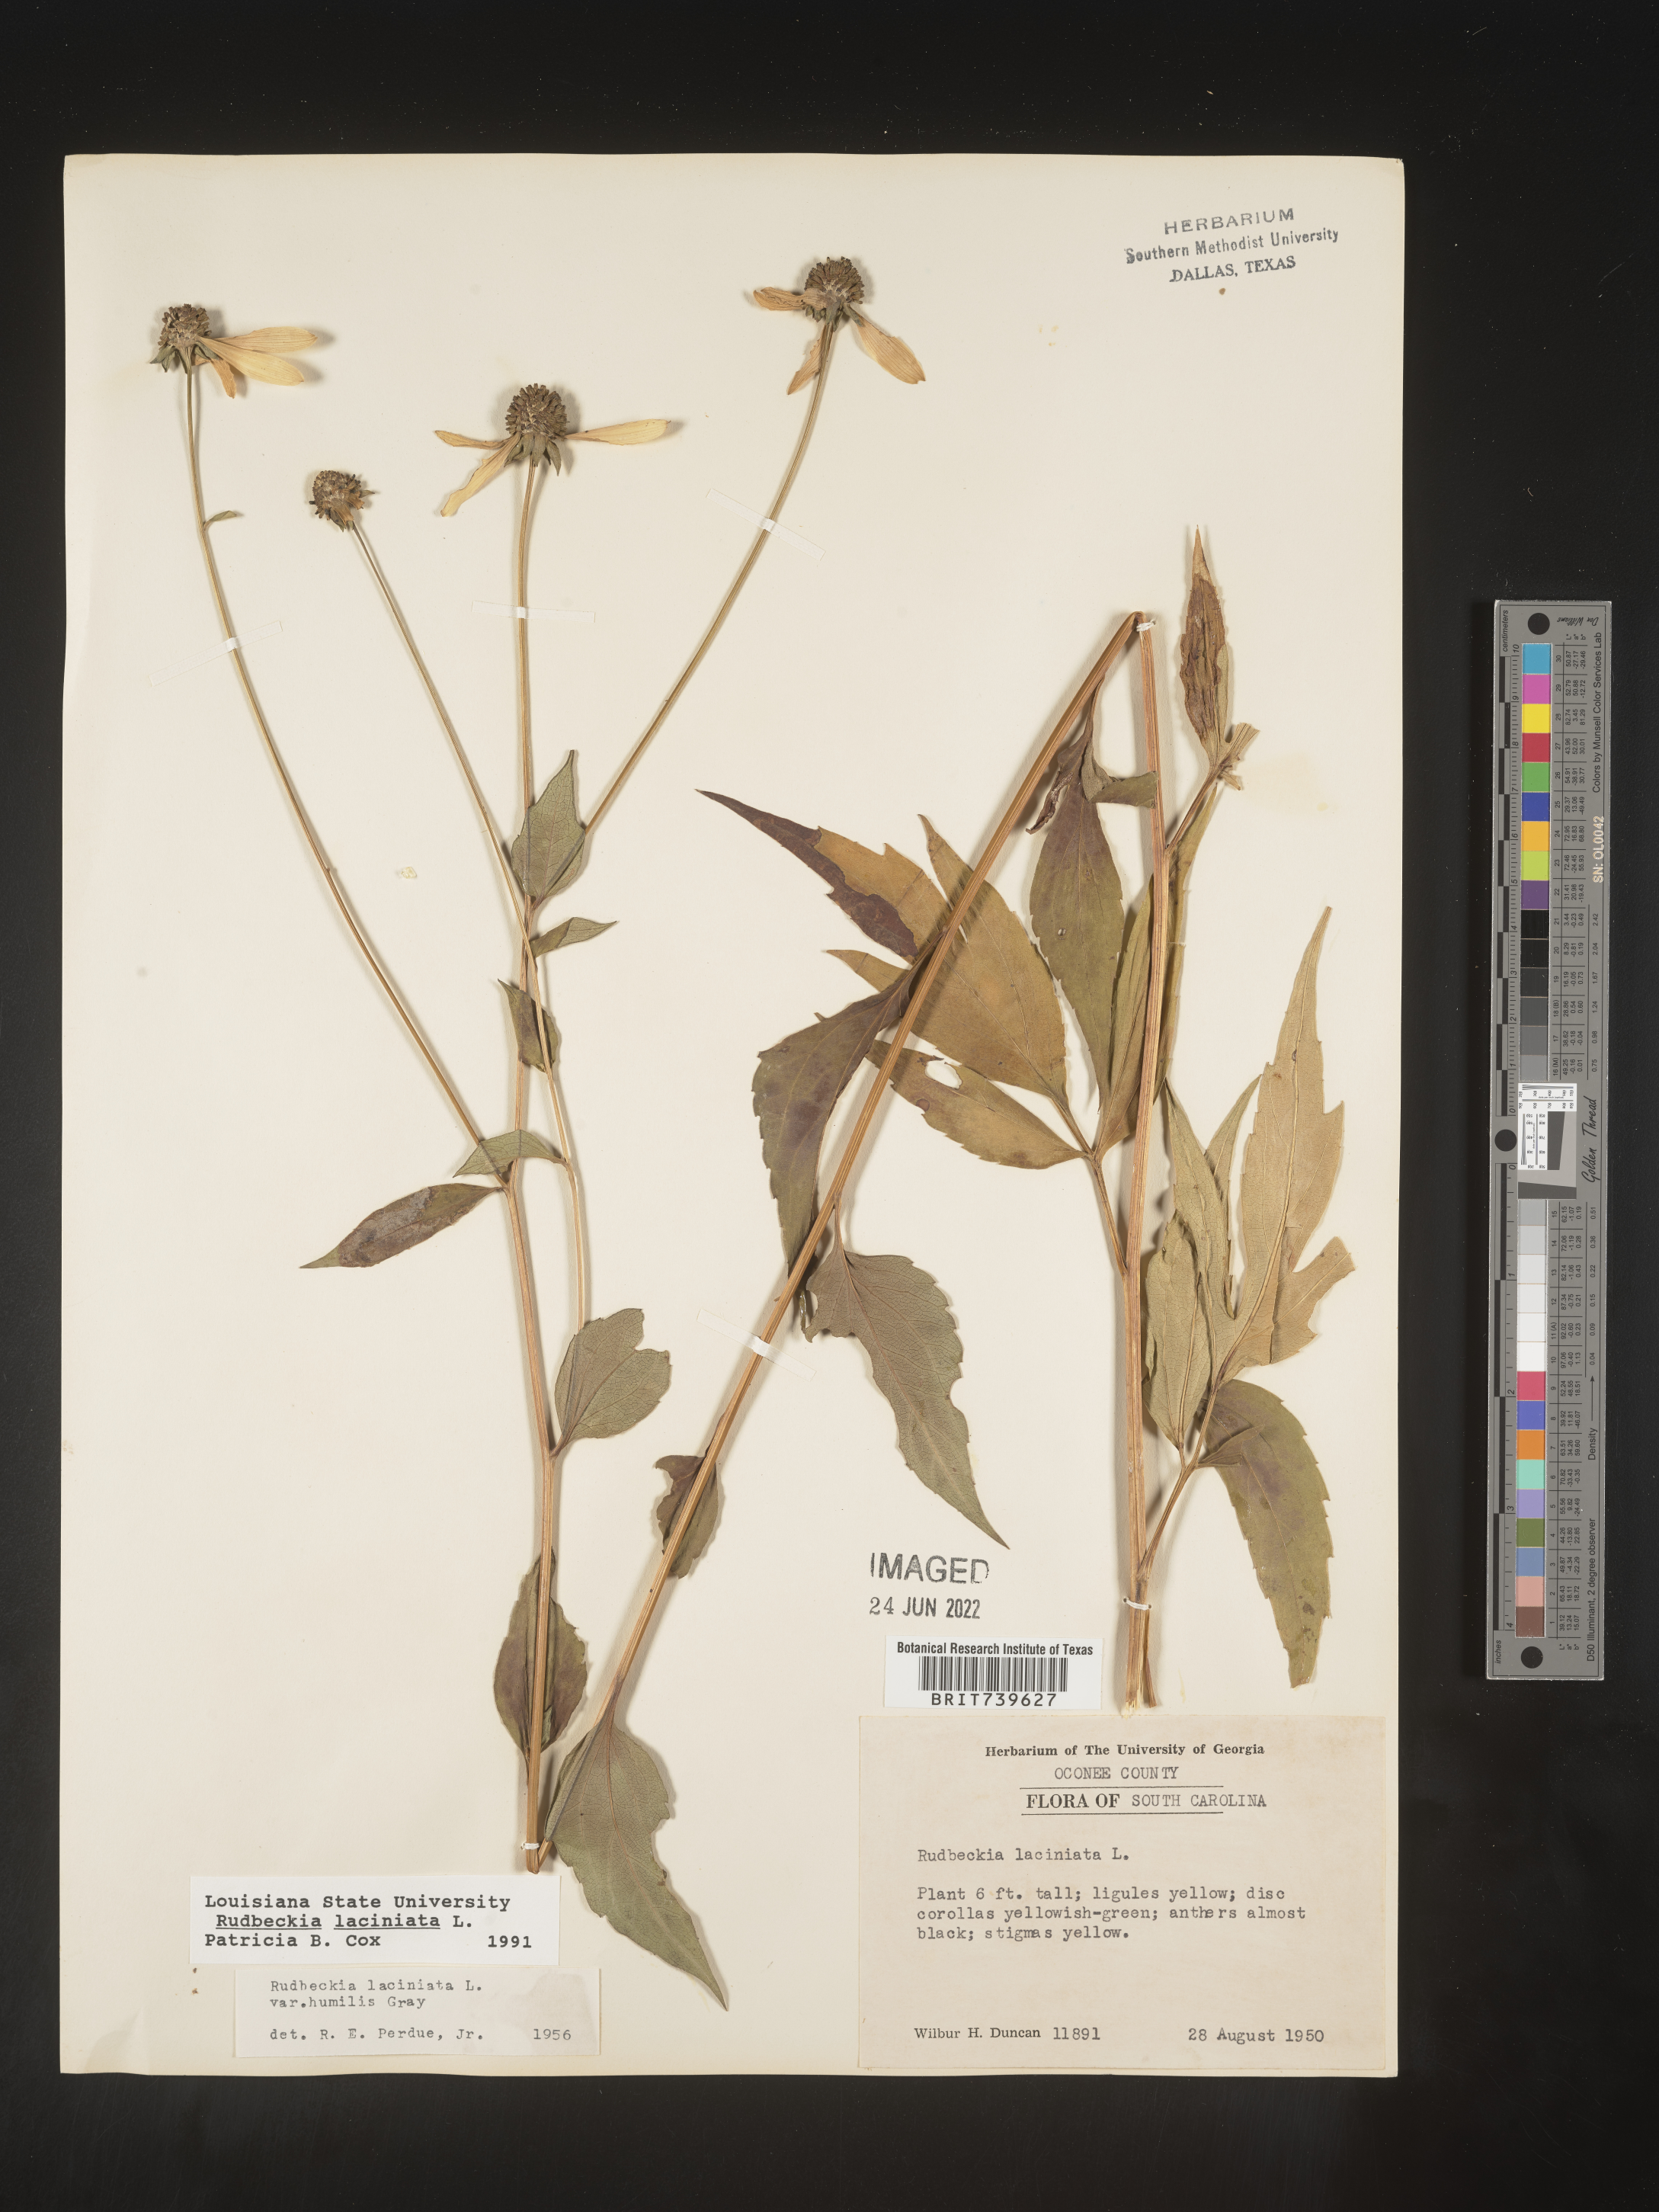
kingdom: Plantae
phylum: Tracheophyta
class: Magnoliopsida
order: Asterales
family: Asteraceae
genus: Rudbeckia
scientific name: Rudbeckia laciniata
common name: Coneflower
